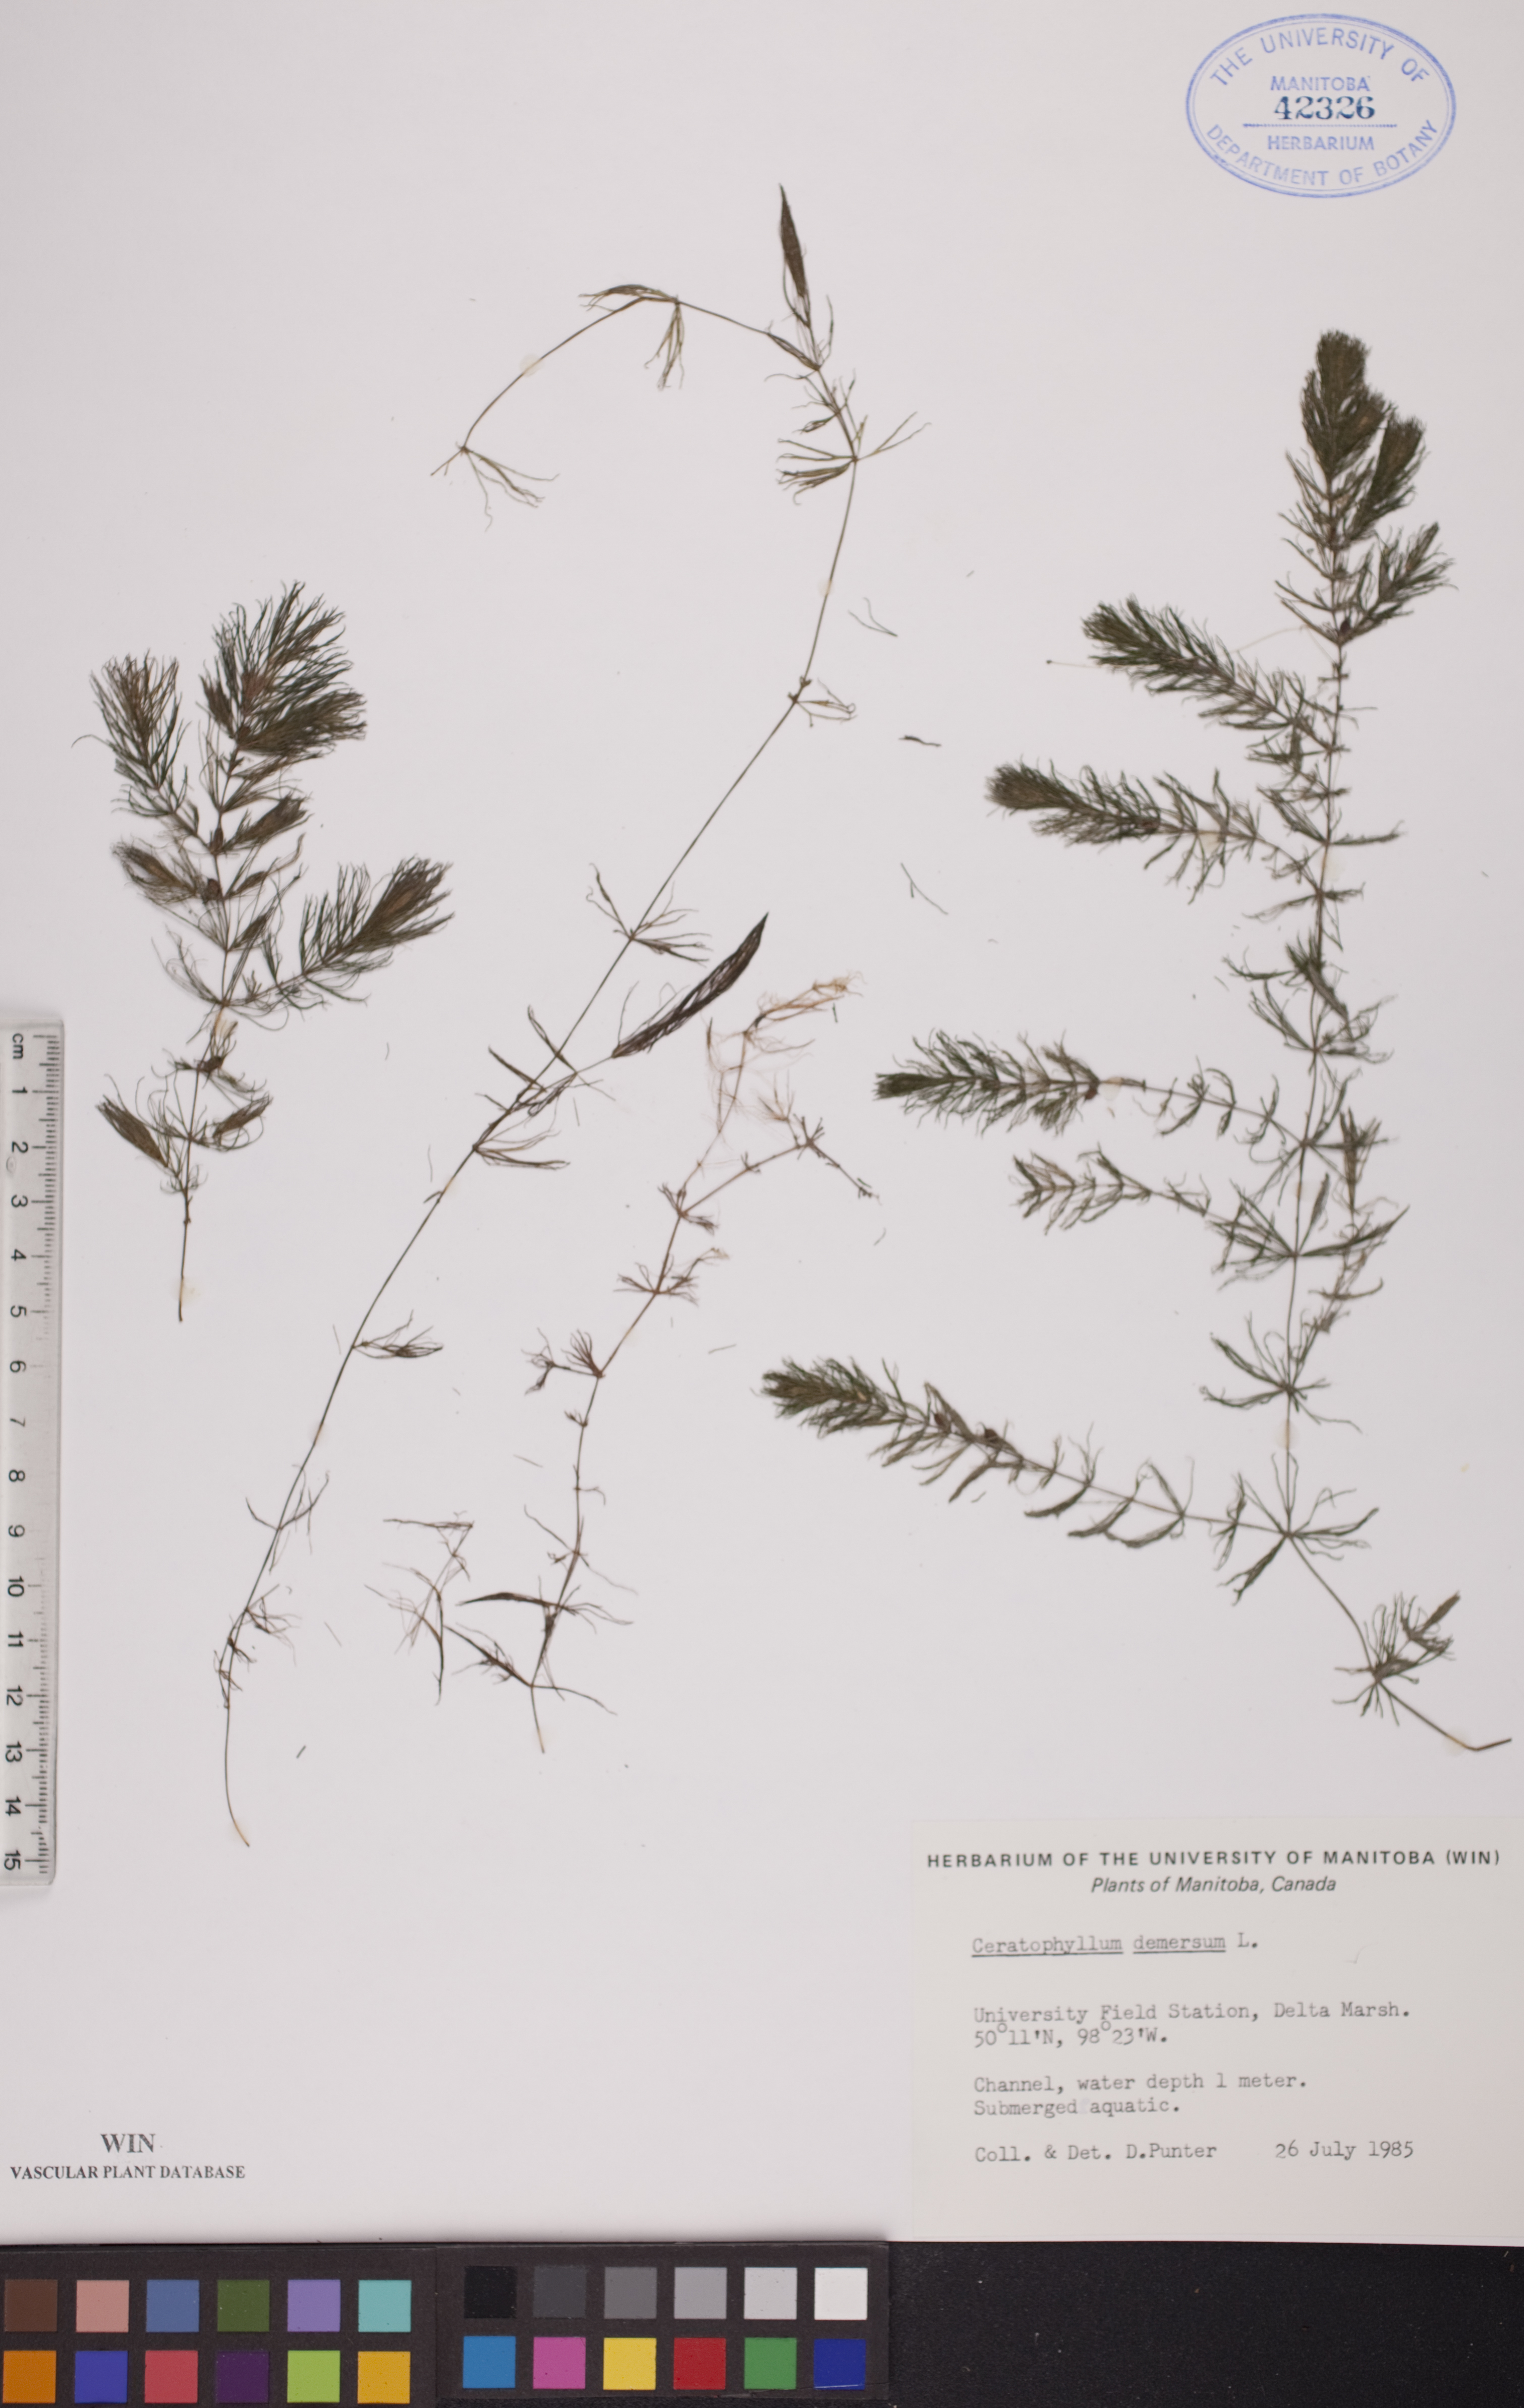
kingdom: Plantae
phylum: Tracheophyta
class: Magnoliopsida
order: Ceratophyllales
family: Ceratophyllaceae
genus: Ceratophyllum
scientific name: Ceratophyllum demersum
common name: Rigid hornwort
